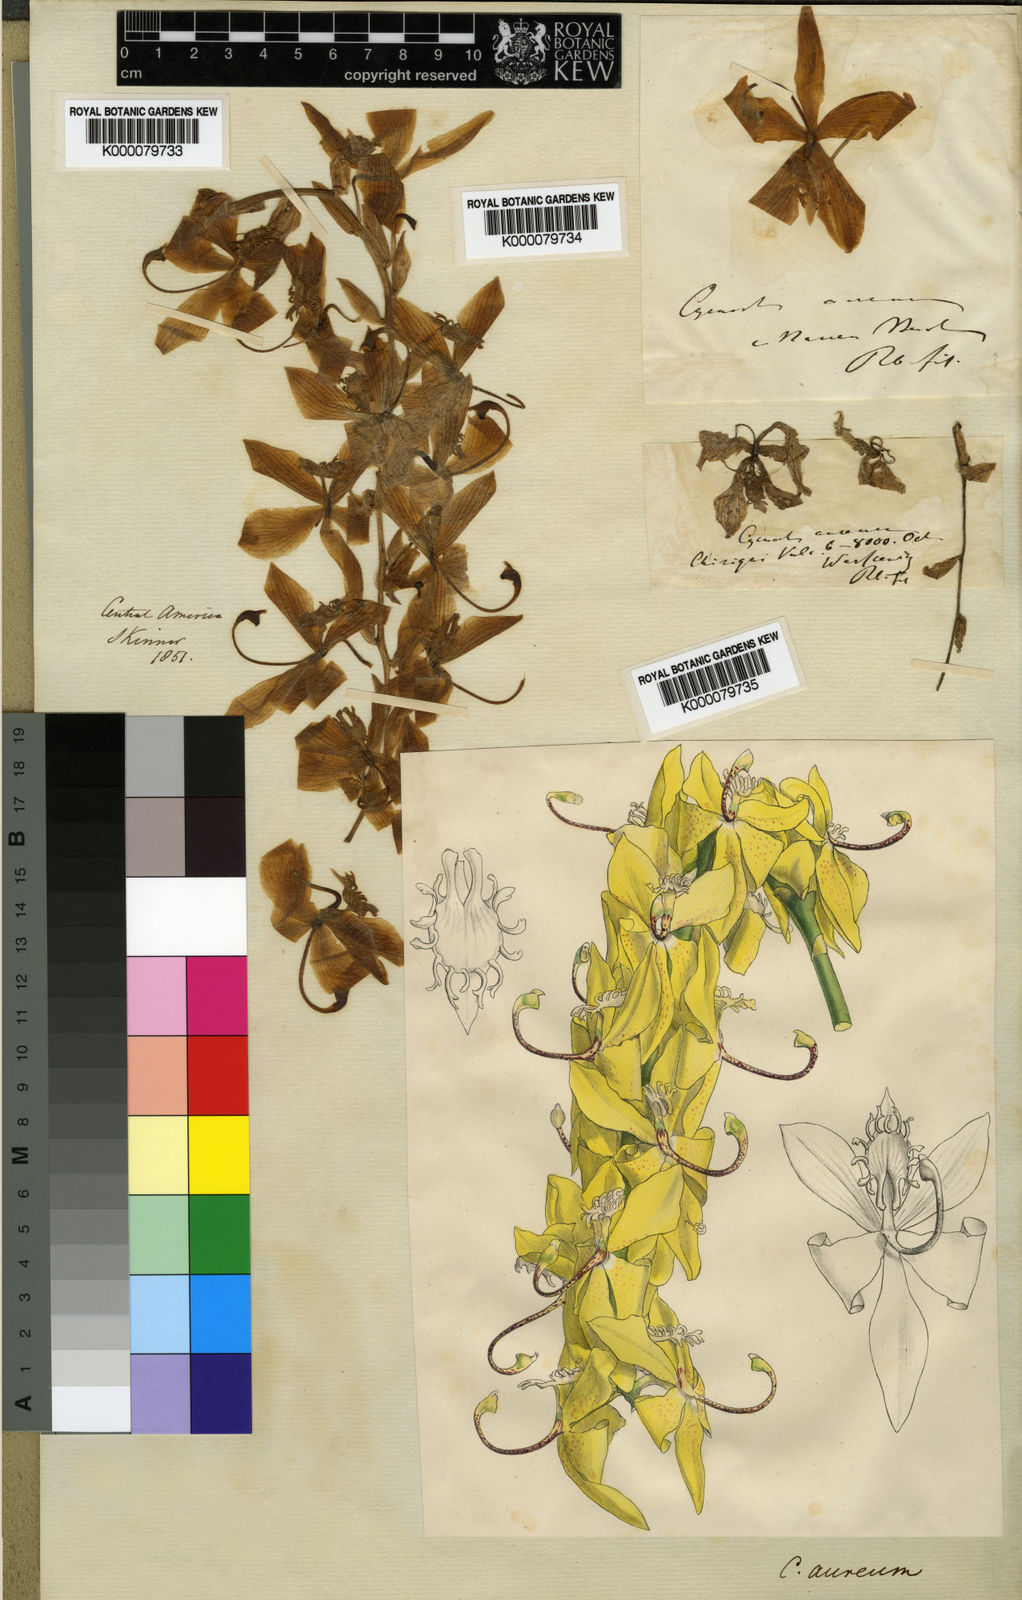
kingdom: Plantae
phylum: Tracheophyta
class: Liliopsida
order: Asparagales
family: Orchidaceae
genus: Cycnoches
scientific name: Cycnoches aureum
